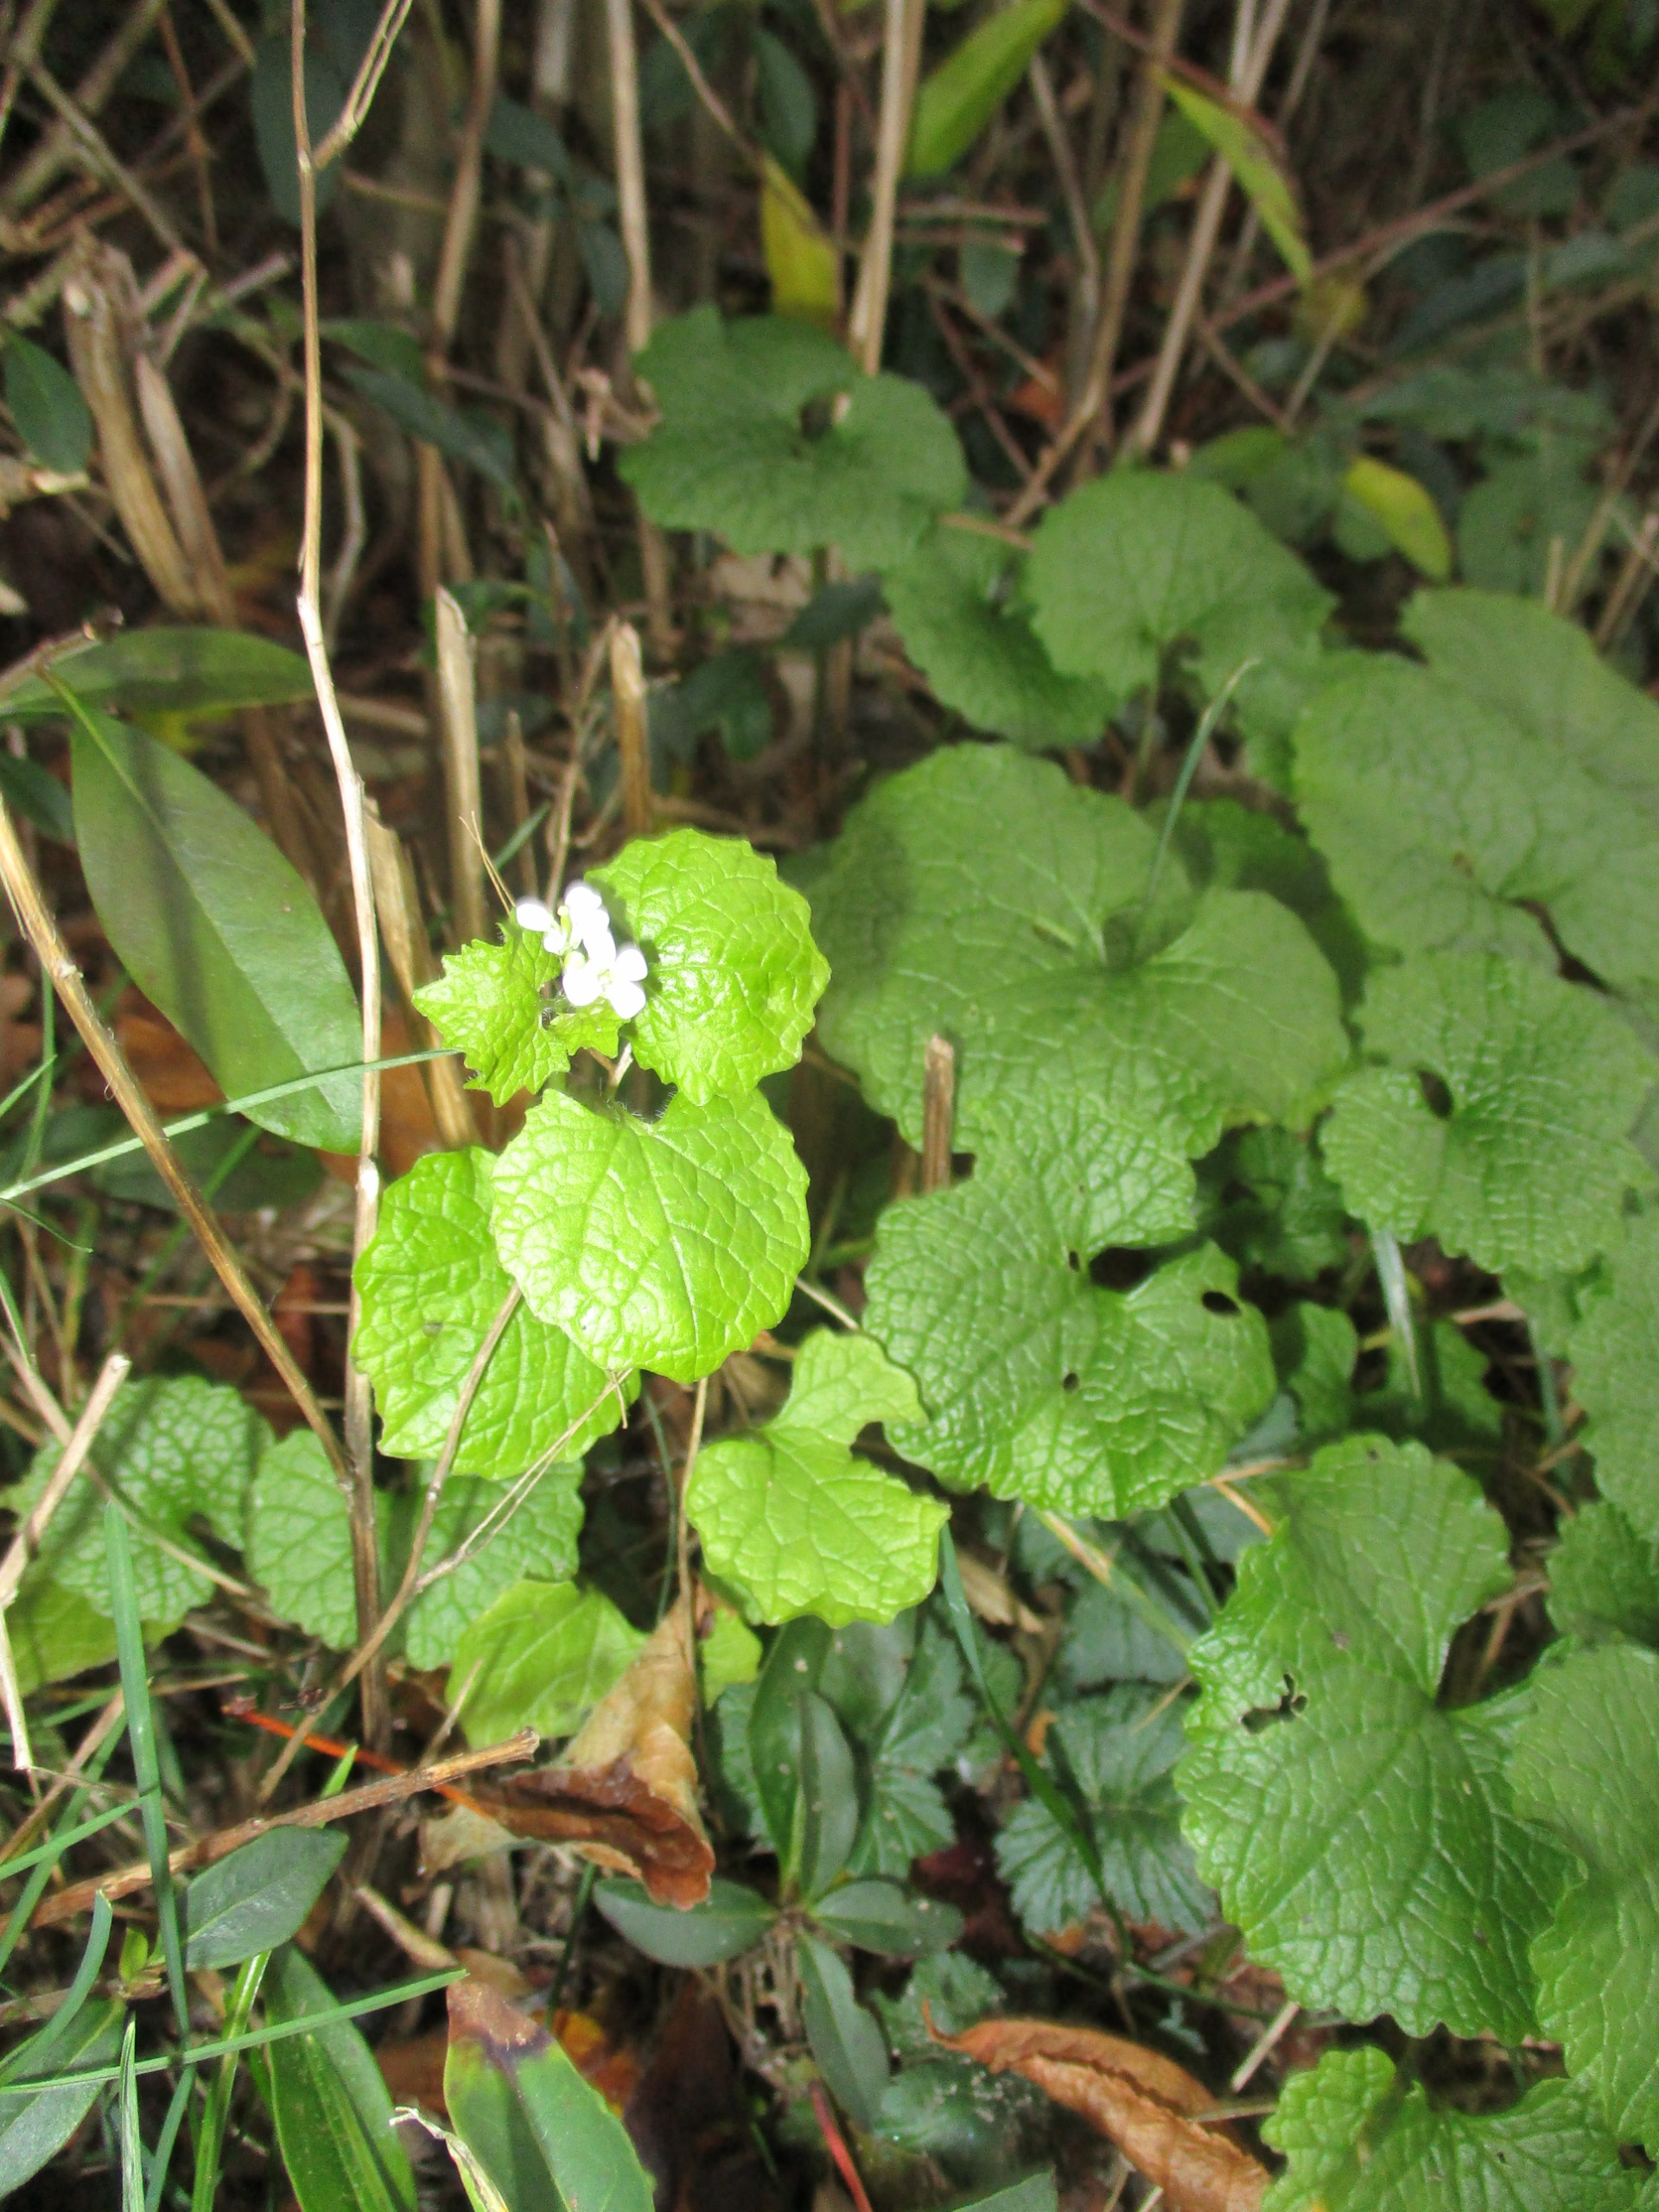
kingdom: Plantae
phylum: Tracheophyta
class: Magnoliopsida
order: Brassicales
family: Brassicaceae
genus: Alliaria
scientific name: Alliaria petiolata
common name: Løgkarse
